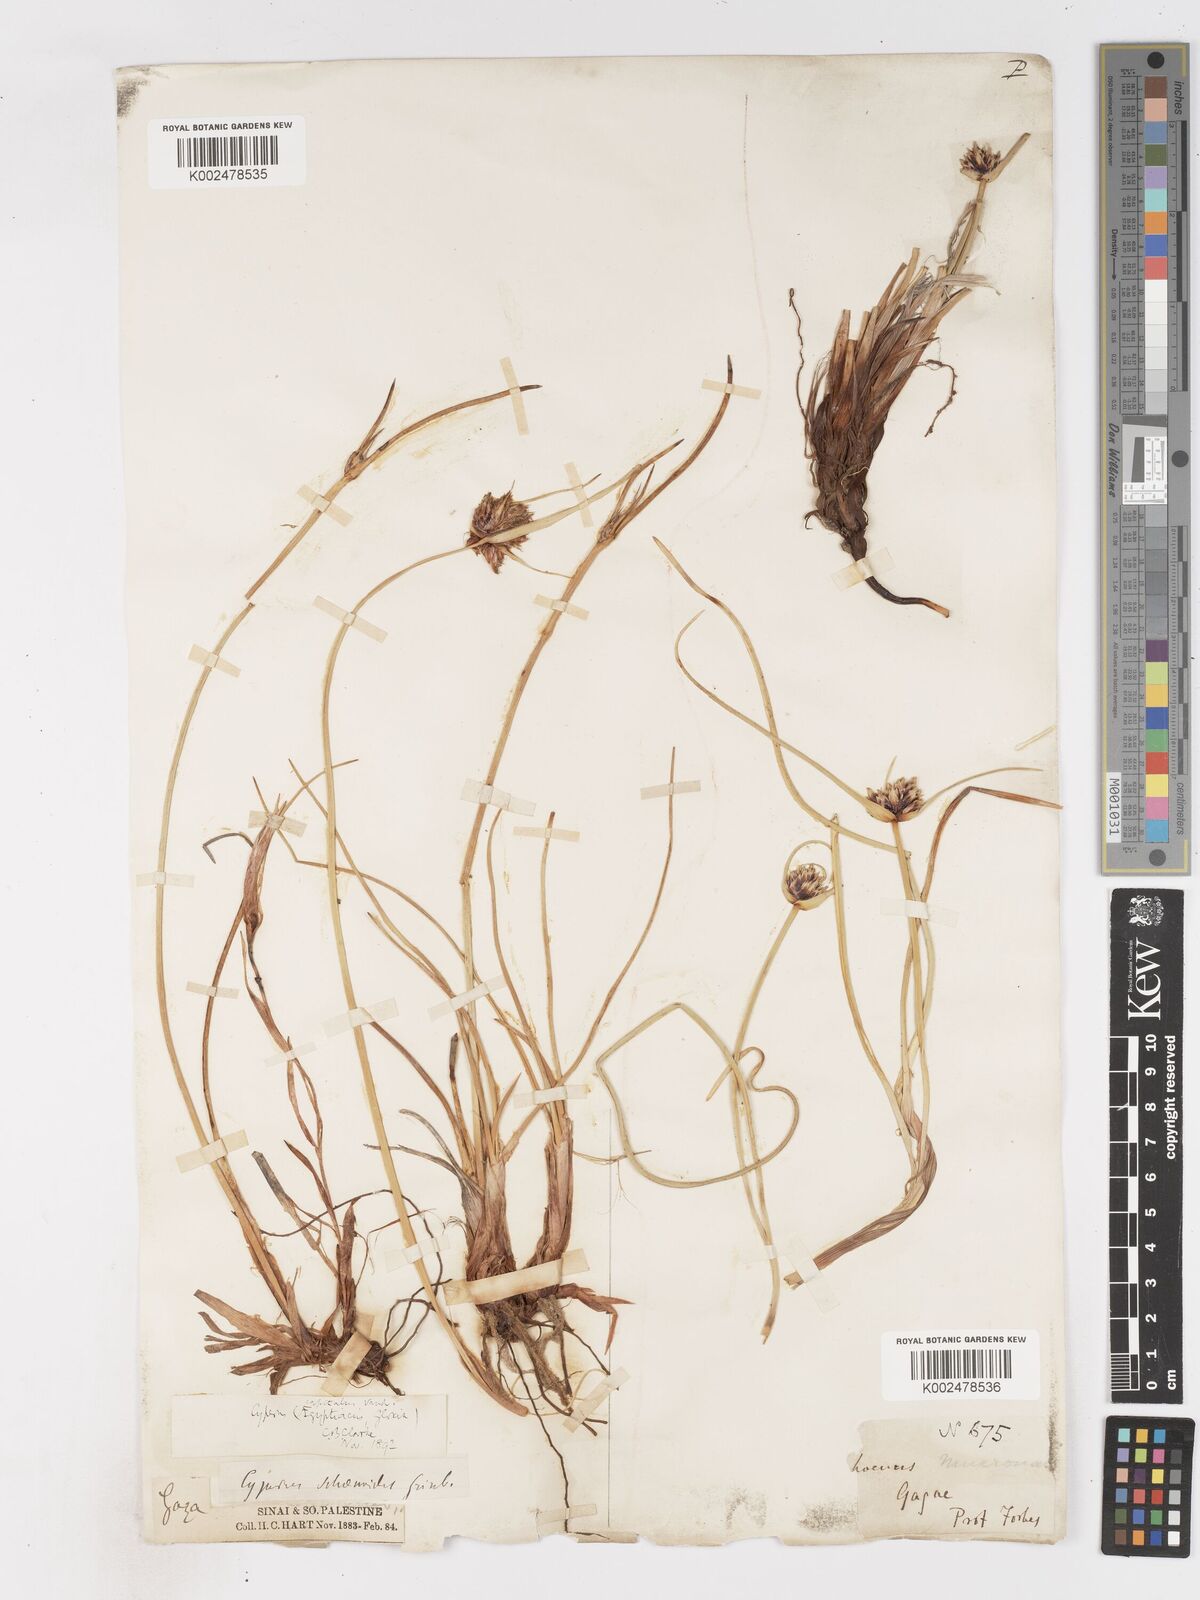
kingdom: Plantae
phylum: Tracheophyta
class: Liliopsida
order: Poales
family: Cyperaceae
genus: Cyperus
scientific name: Cyperus capitatus
